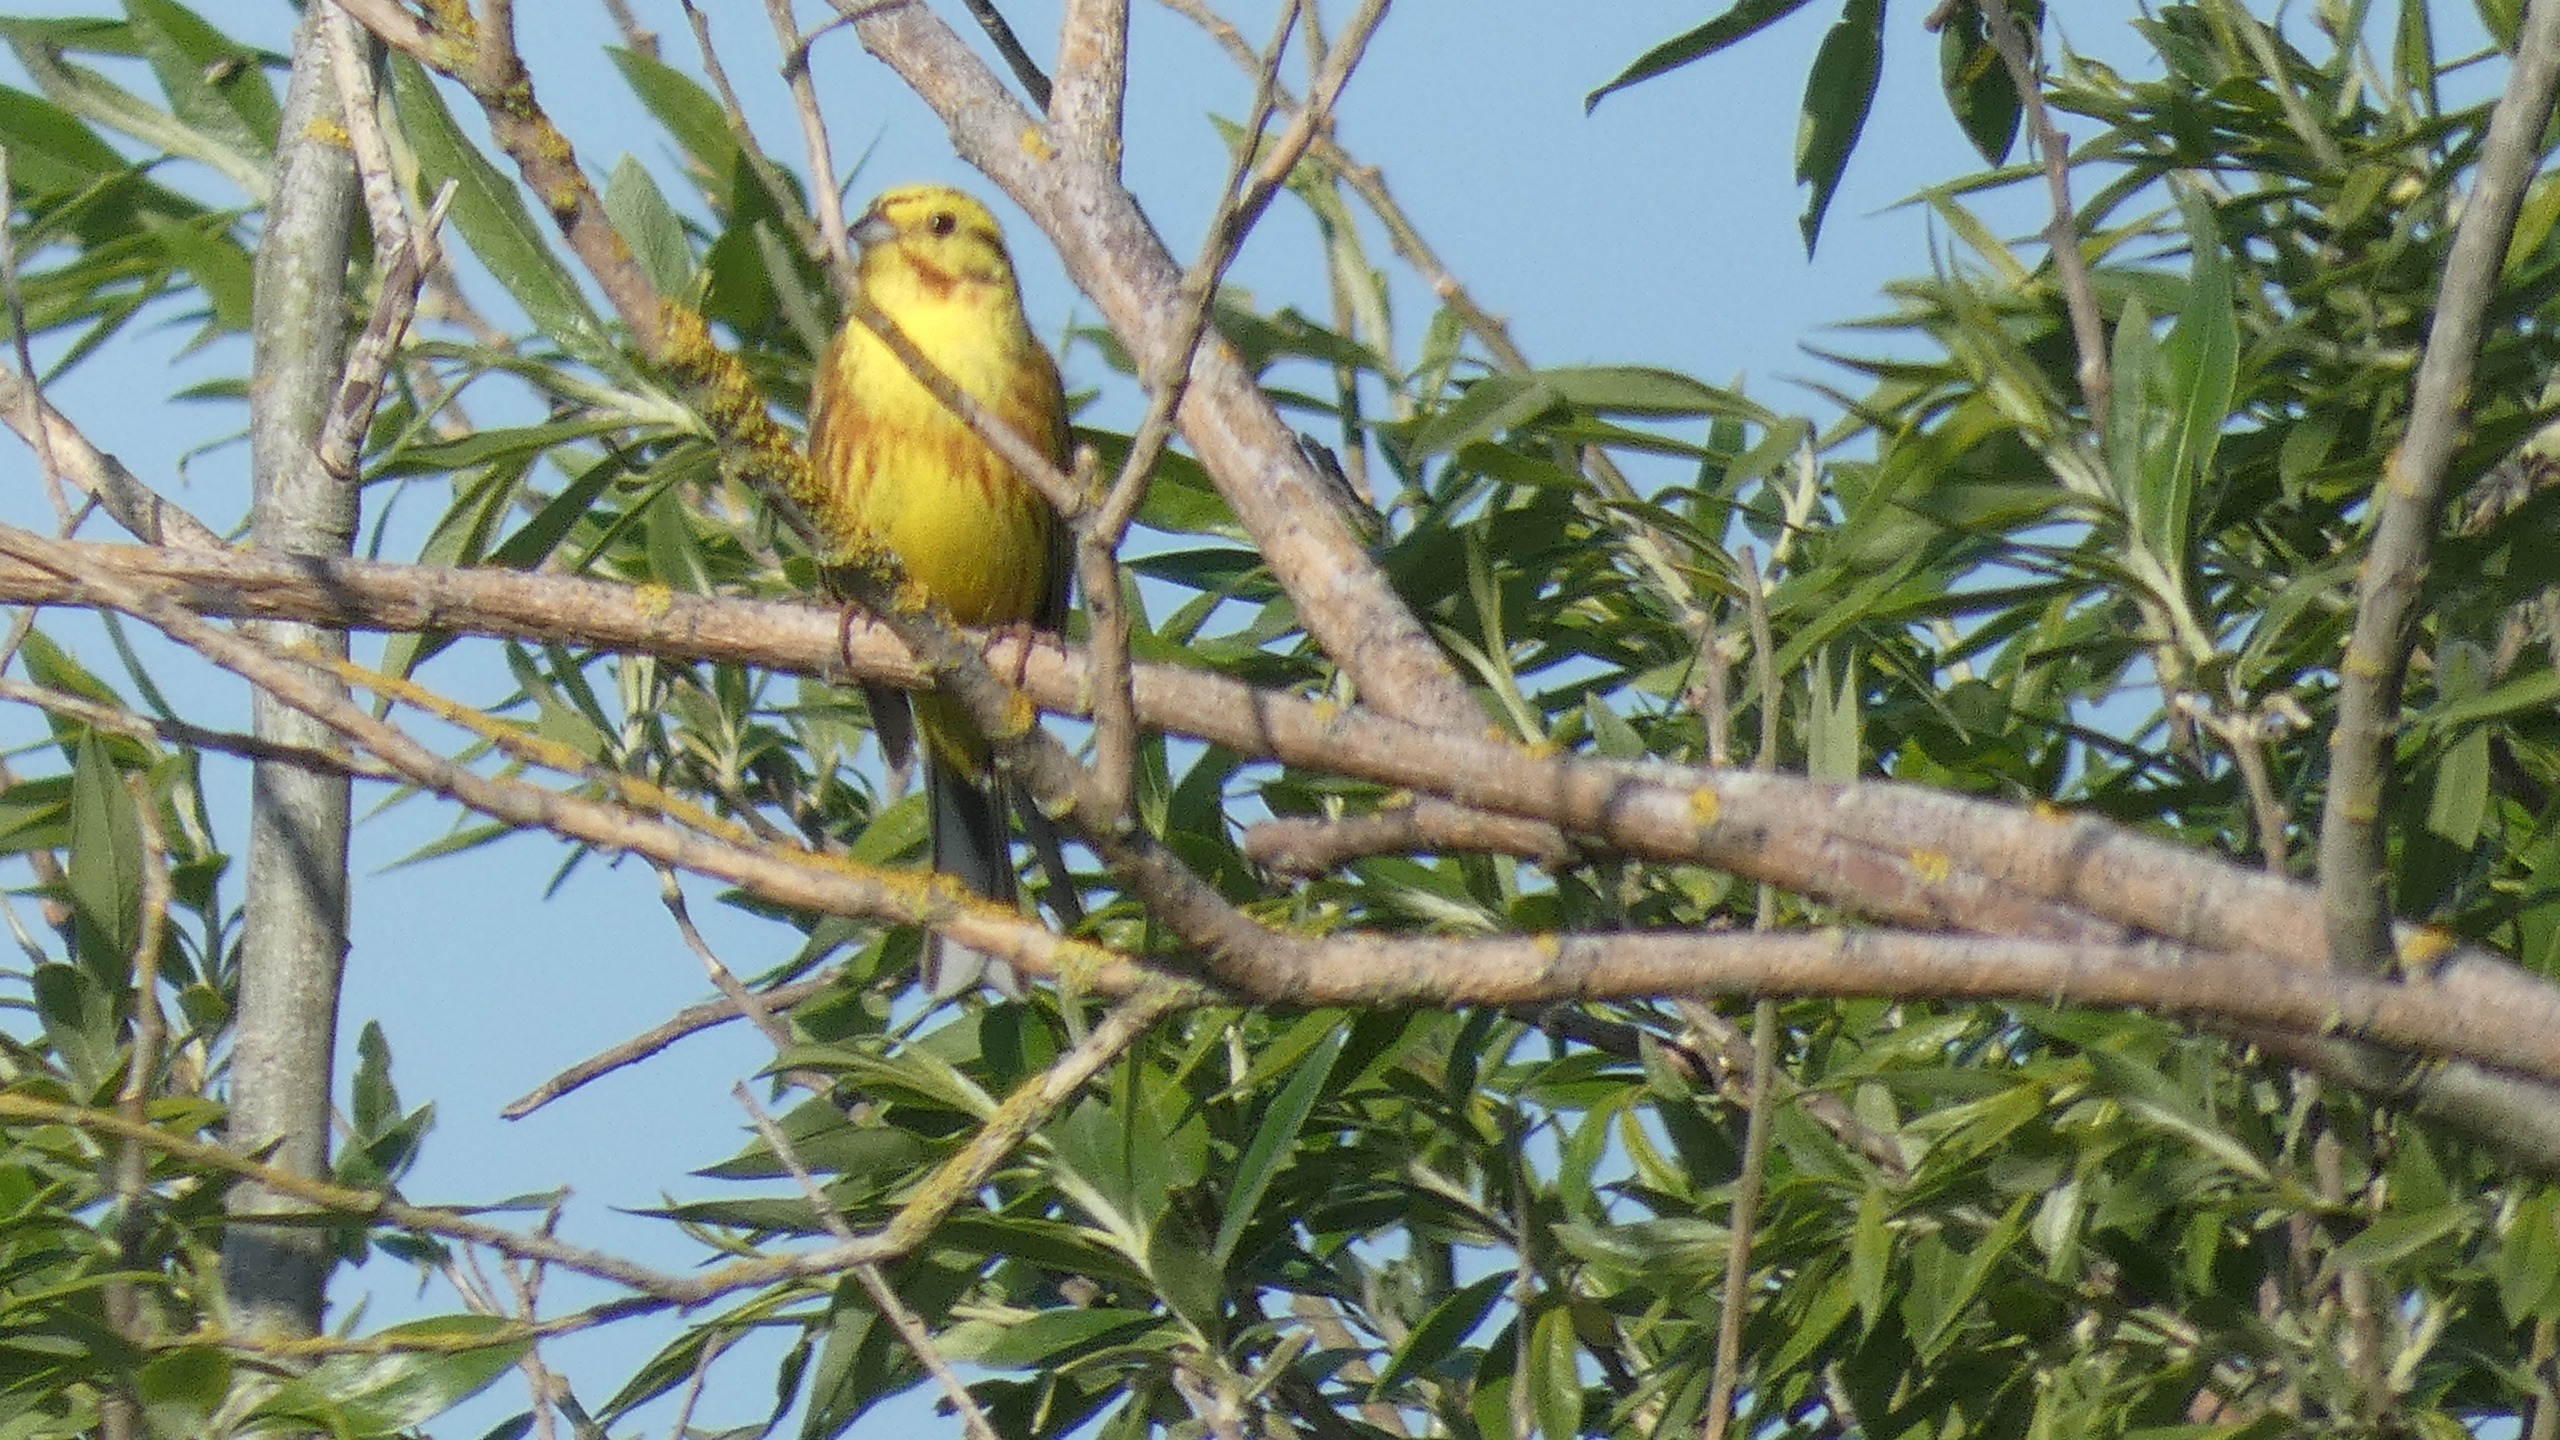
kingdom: Animalia
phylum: Chordata
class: Aves
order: Passeriformes
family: Emberizidae
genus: Emberiza
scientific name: Emberiza citrinella
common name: Gulspurv
